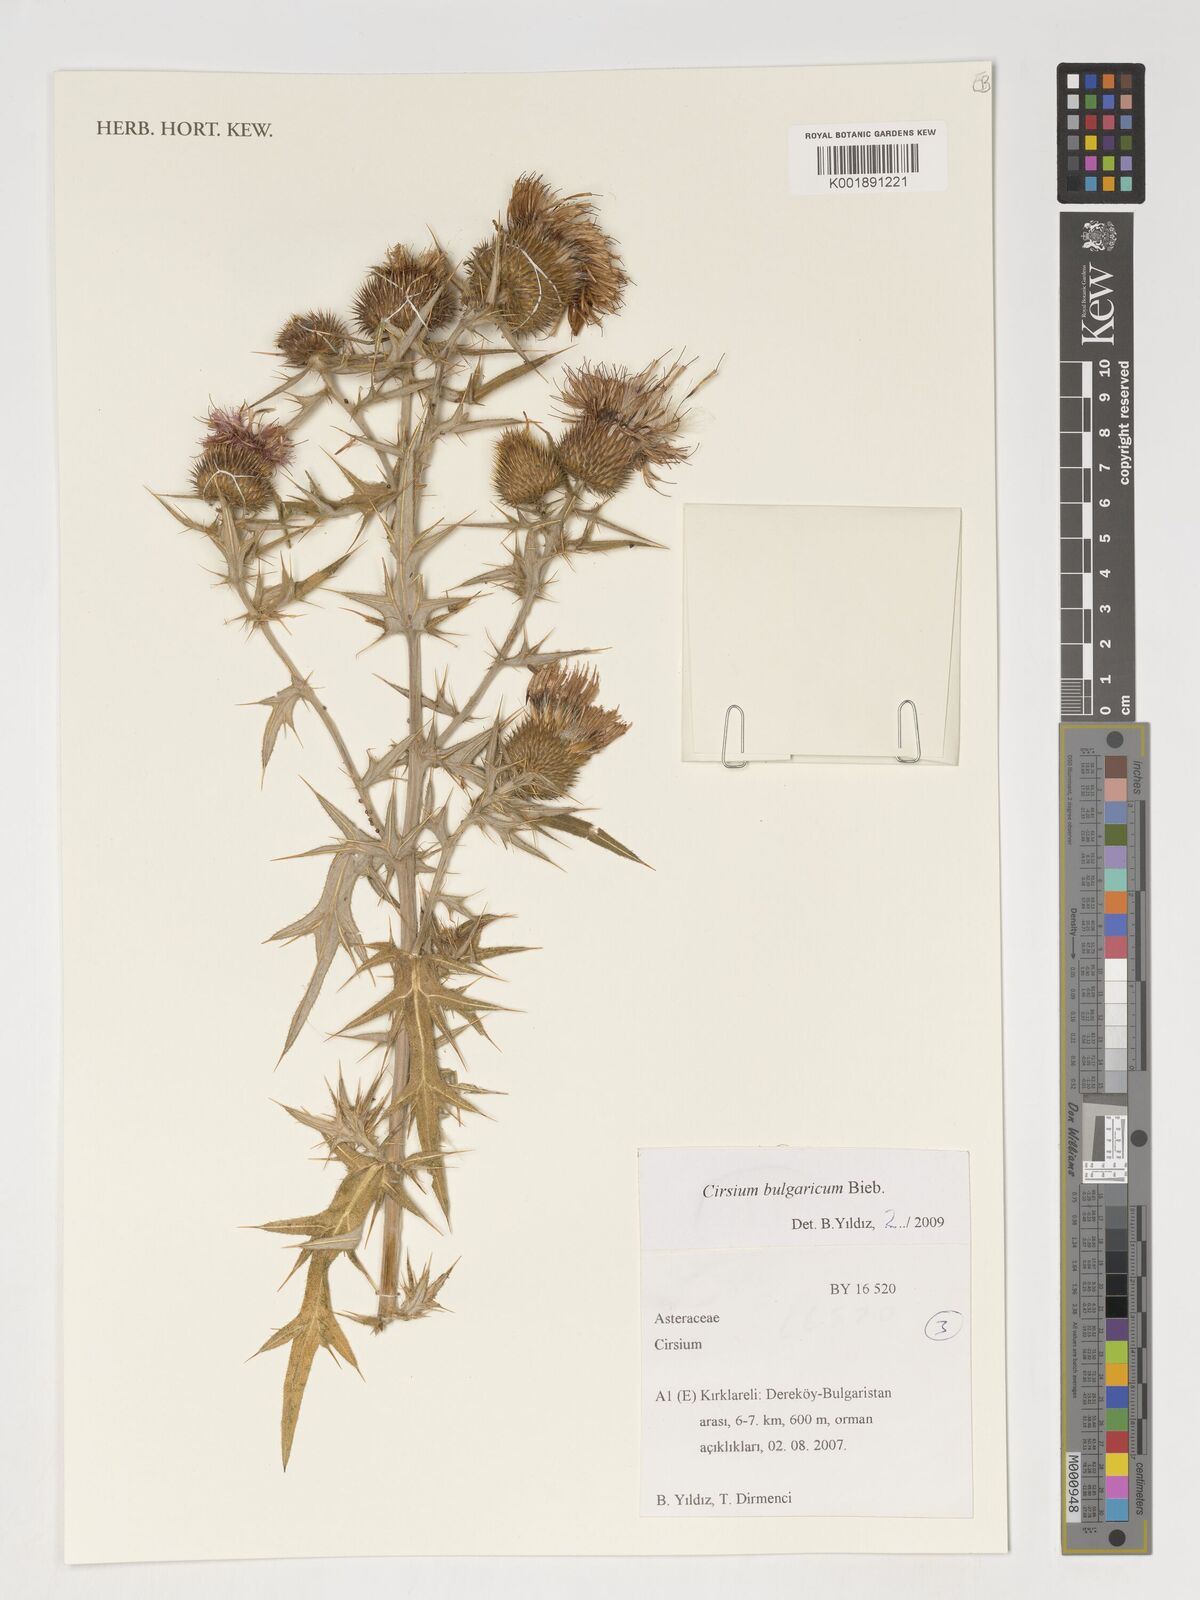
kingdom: Plantae
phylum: Tracheophyta
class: Magnoliopsida
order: Asterales
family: Asteraceae
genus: Cirsium
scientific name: Cirsium
